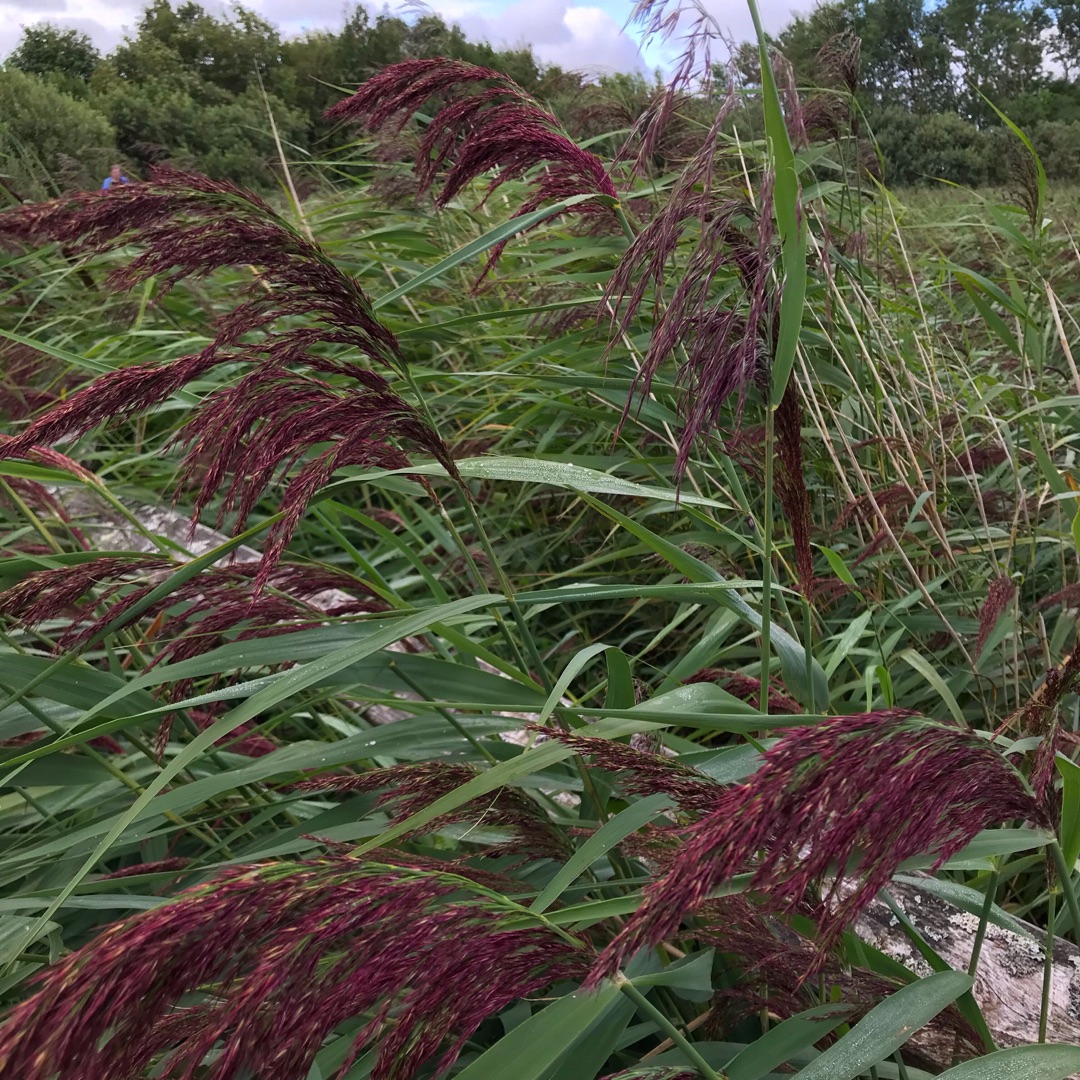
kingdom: Plantae
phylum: Tracheophyta
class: Liliopsida
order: Poales
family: Poaceae
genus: Phragmites
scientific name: Phragmites australis
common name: Tagrør
